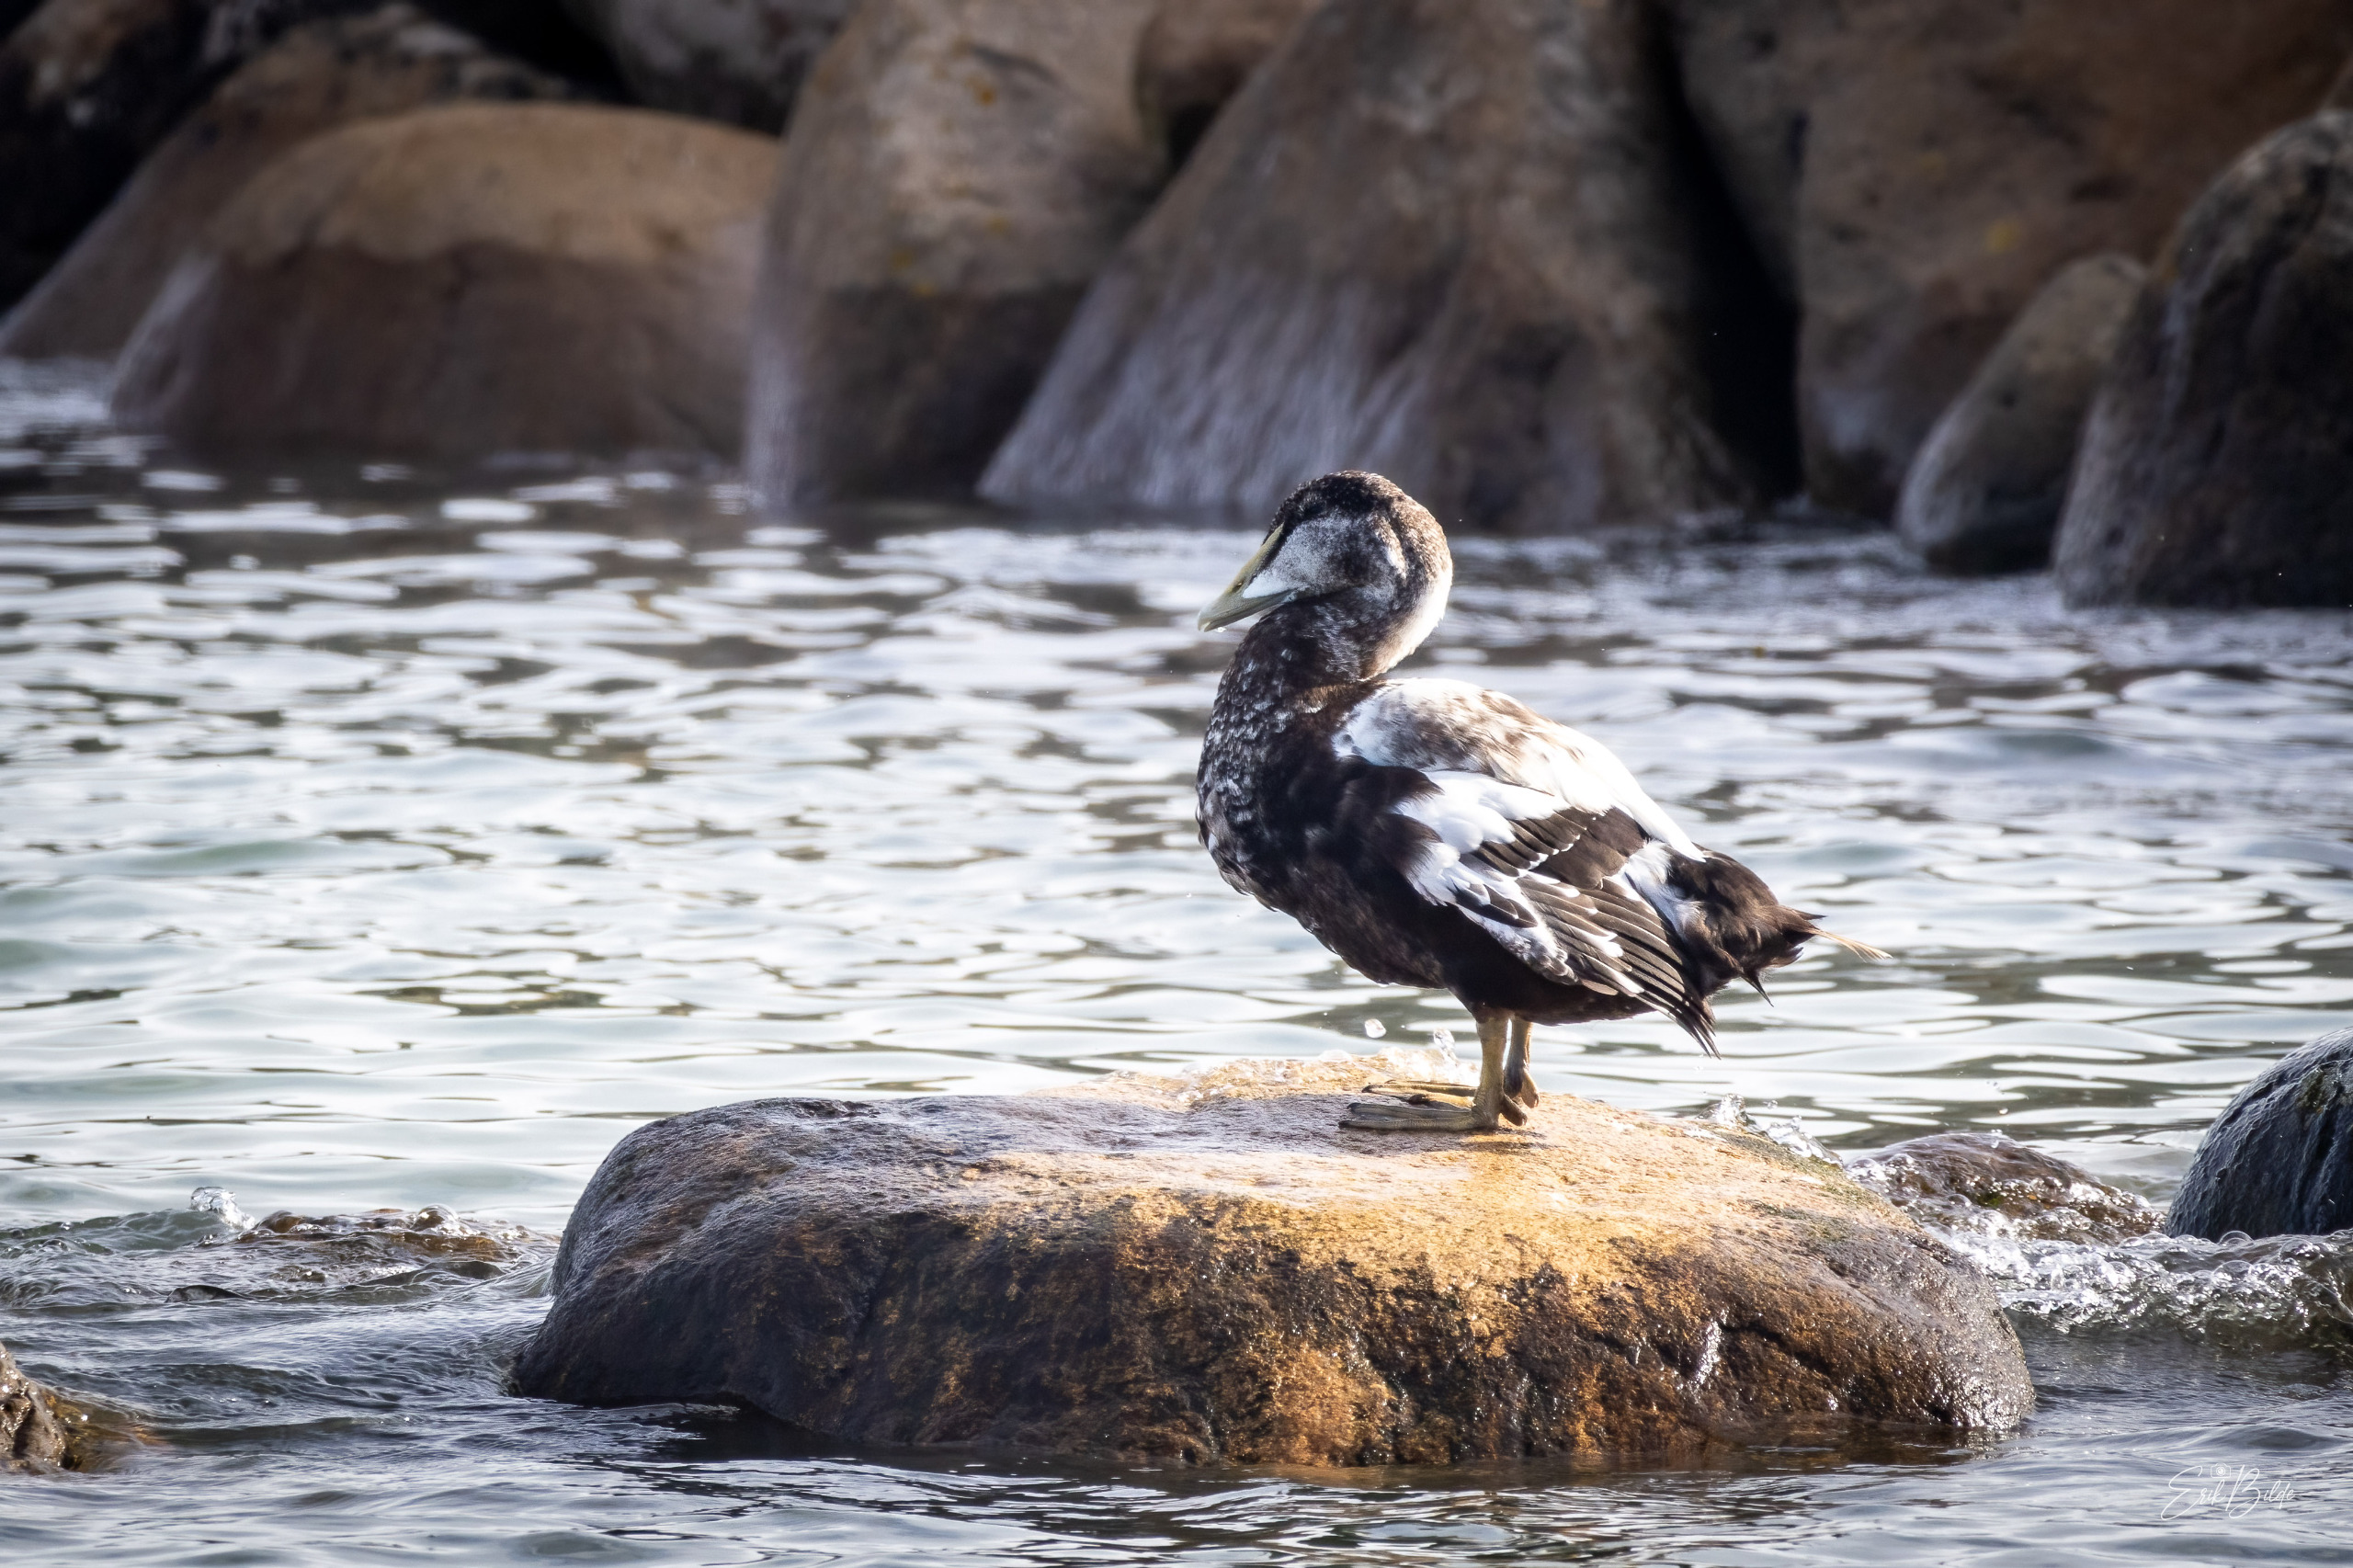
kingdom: Animalia
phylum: Chordata
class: Aves
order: Anseriformes
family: Anatidae
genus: Somateria
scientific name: Somateria mollissima
